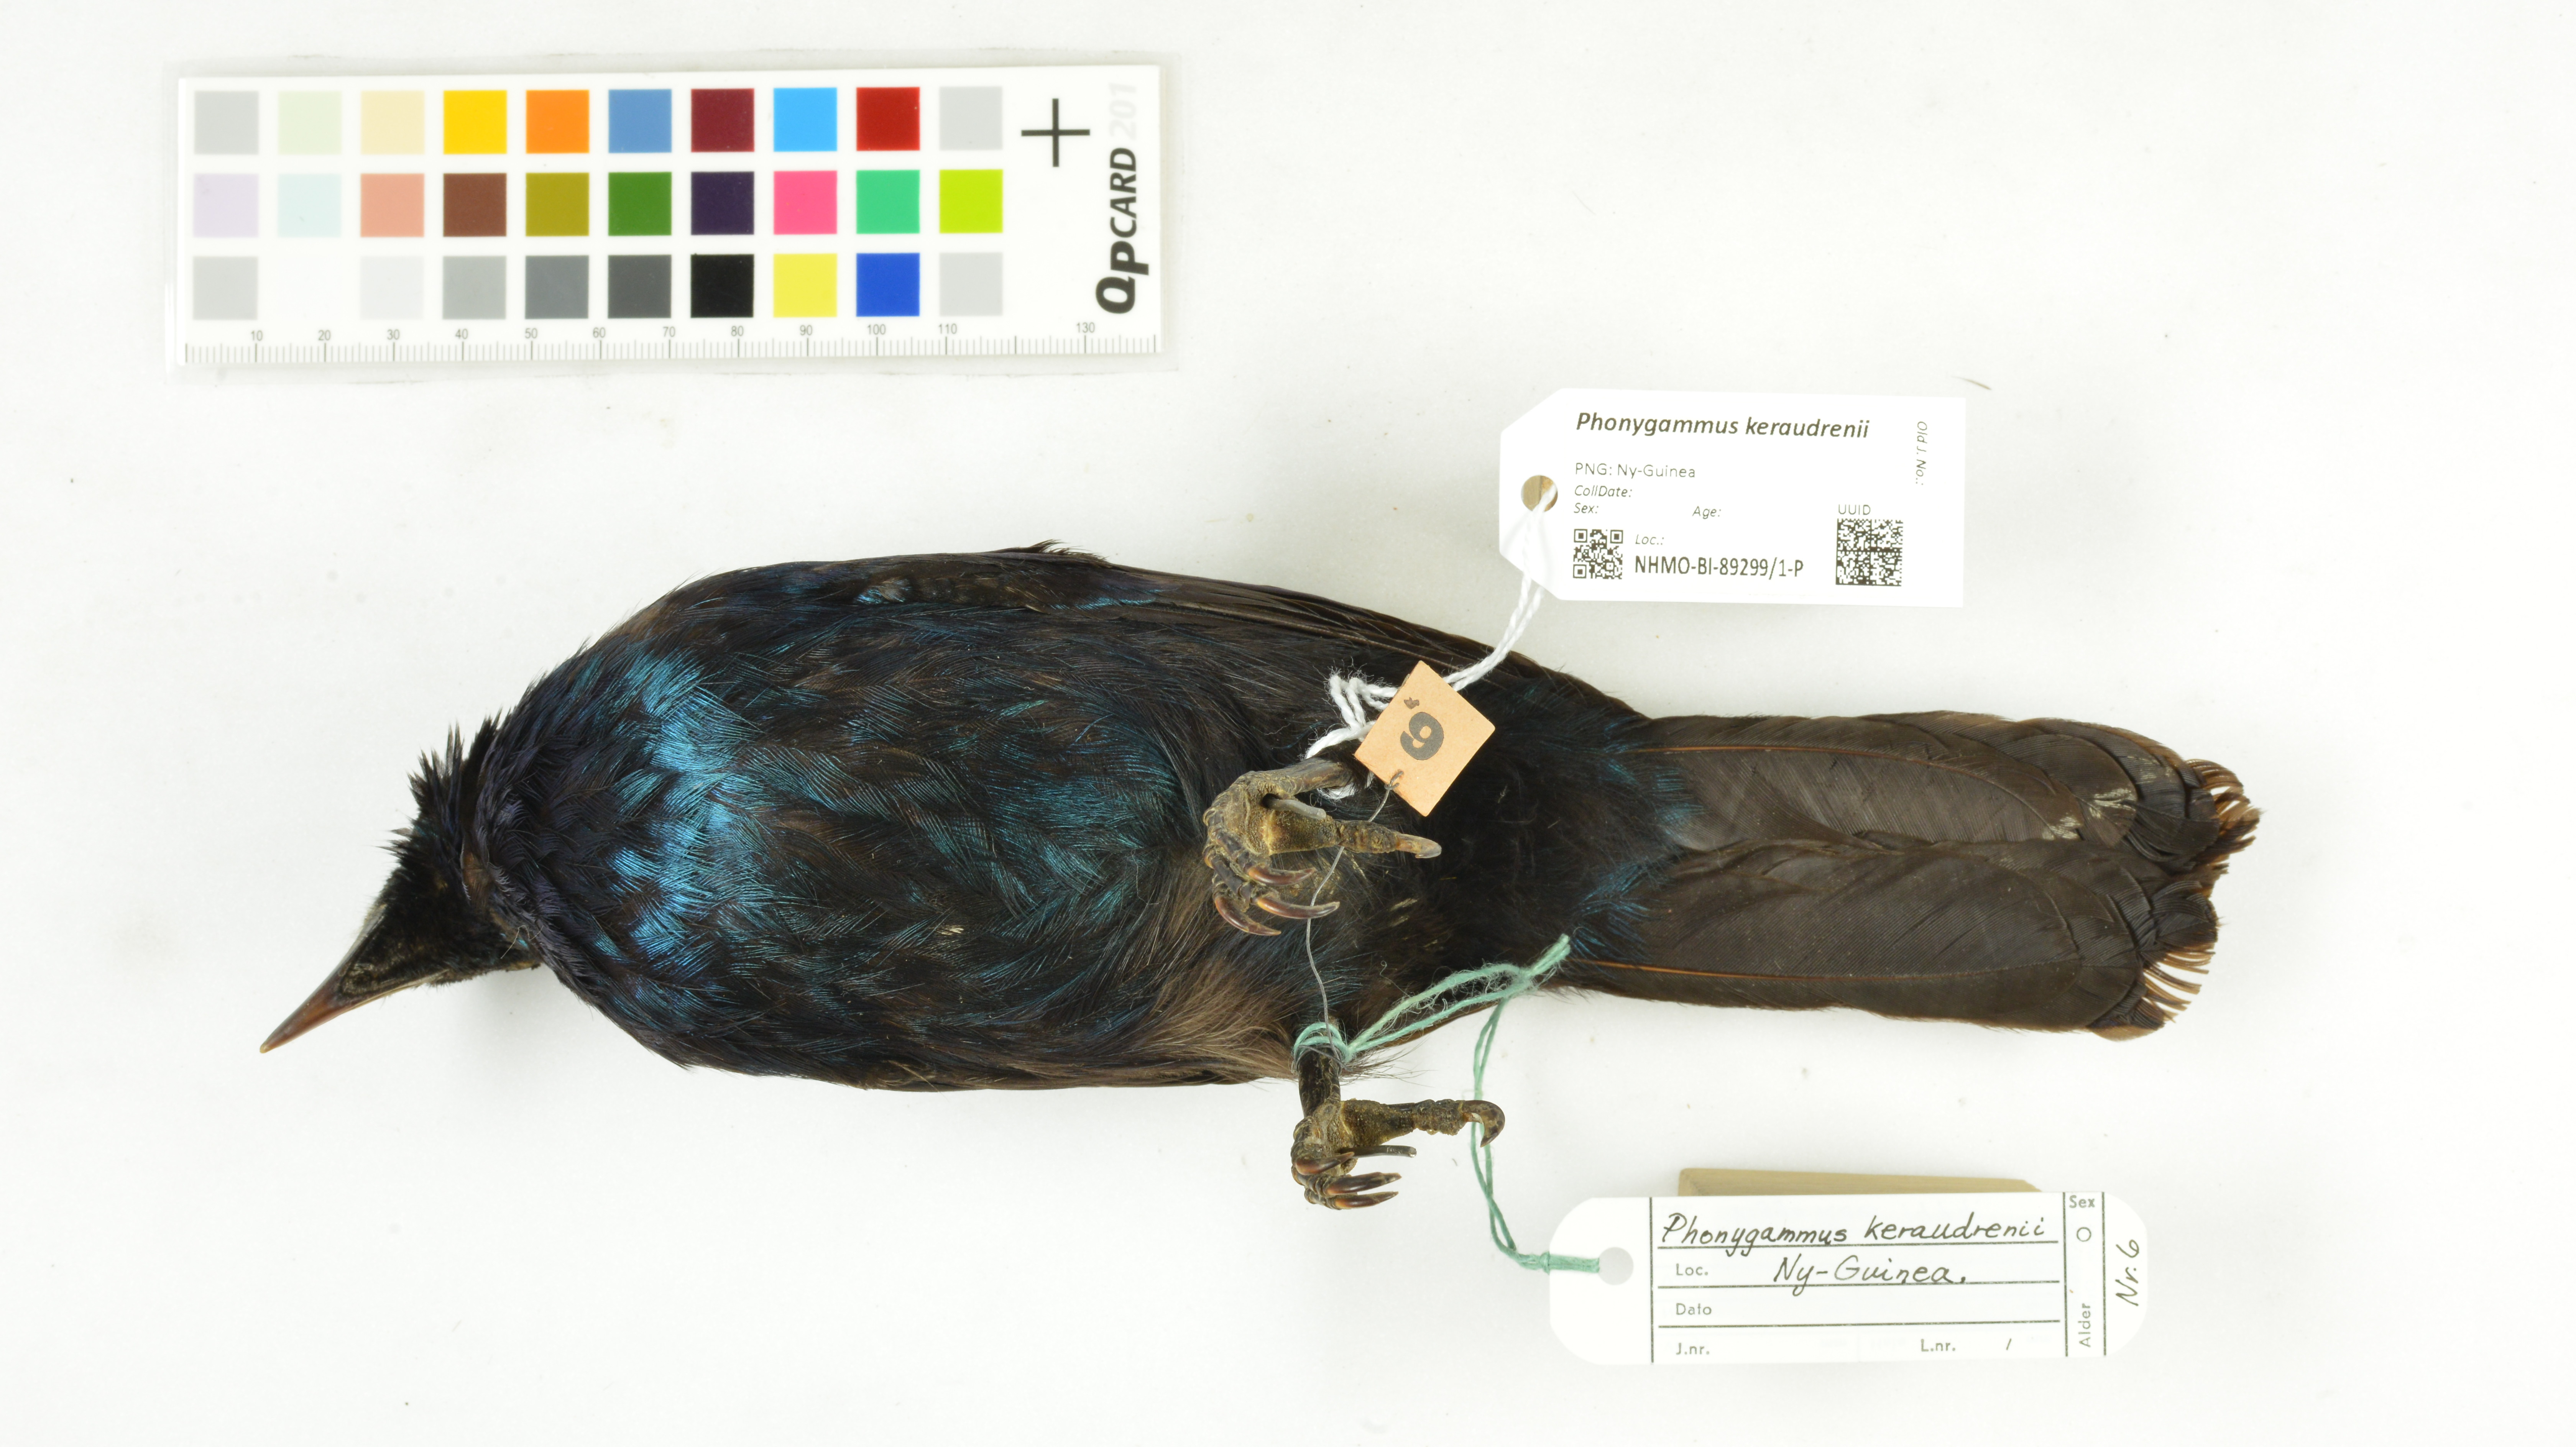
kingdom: Animalia
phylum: Chordata
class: Aves
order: Passeriformes
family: Paradisaeidae
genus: Phonygammus
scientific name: Phonygammus keraudrenii
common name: Trumpet manucode
